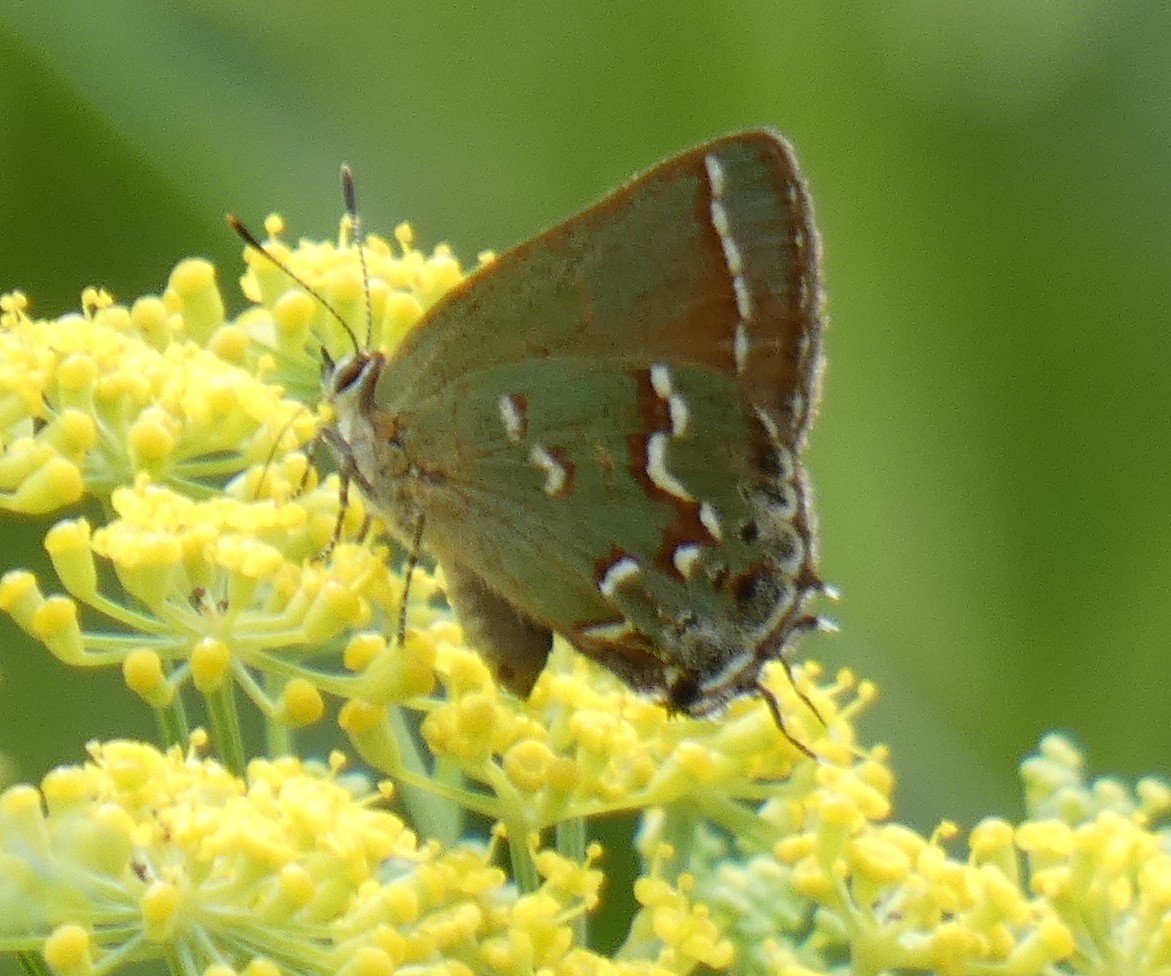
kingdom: Animalia
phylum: Arthropoda
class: Insecta
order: Lepidoptera
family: Lycaenidae
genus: Mitoura
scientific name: Mitoura gryneus
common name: Juniper Hairstreak
